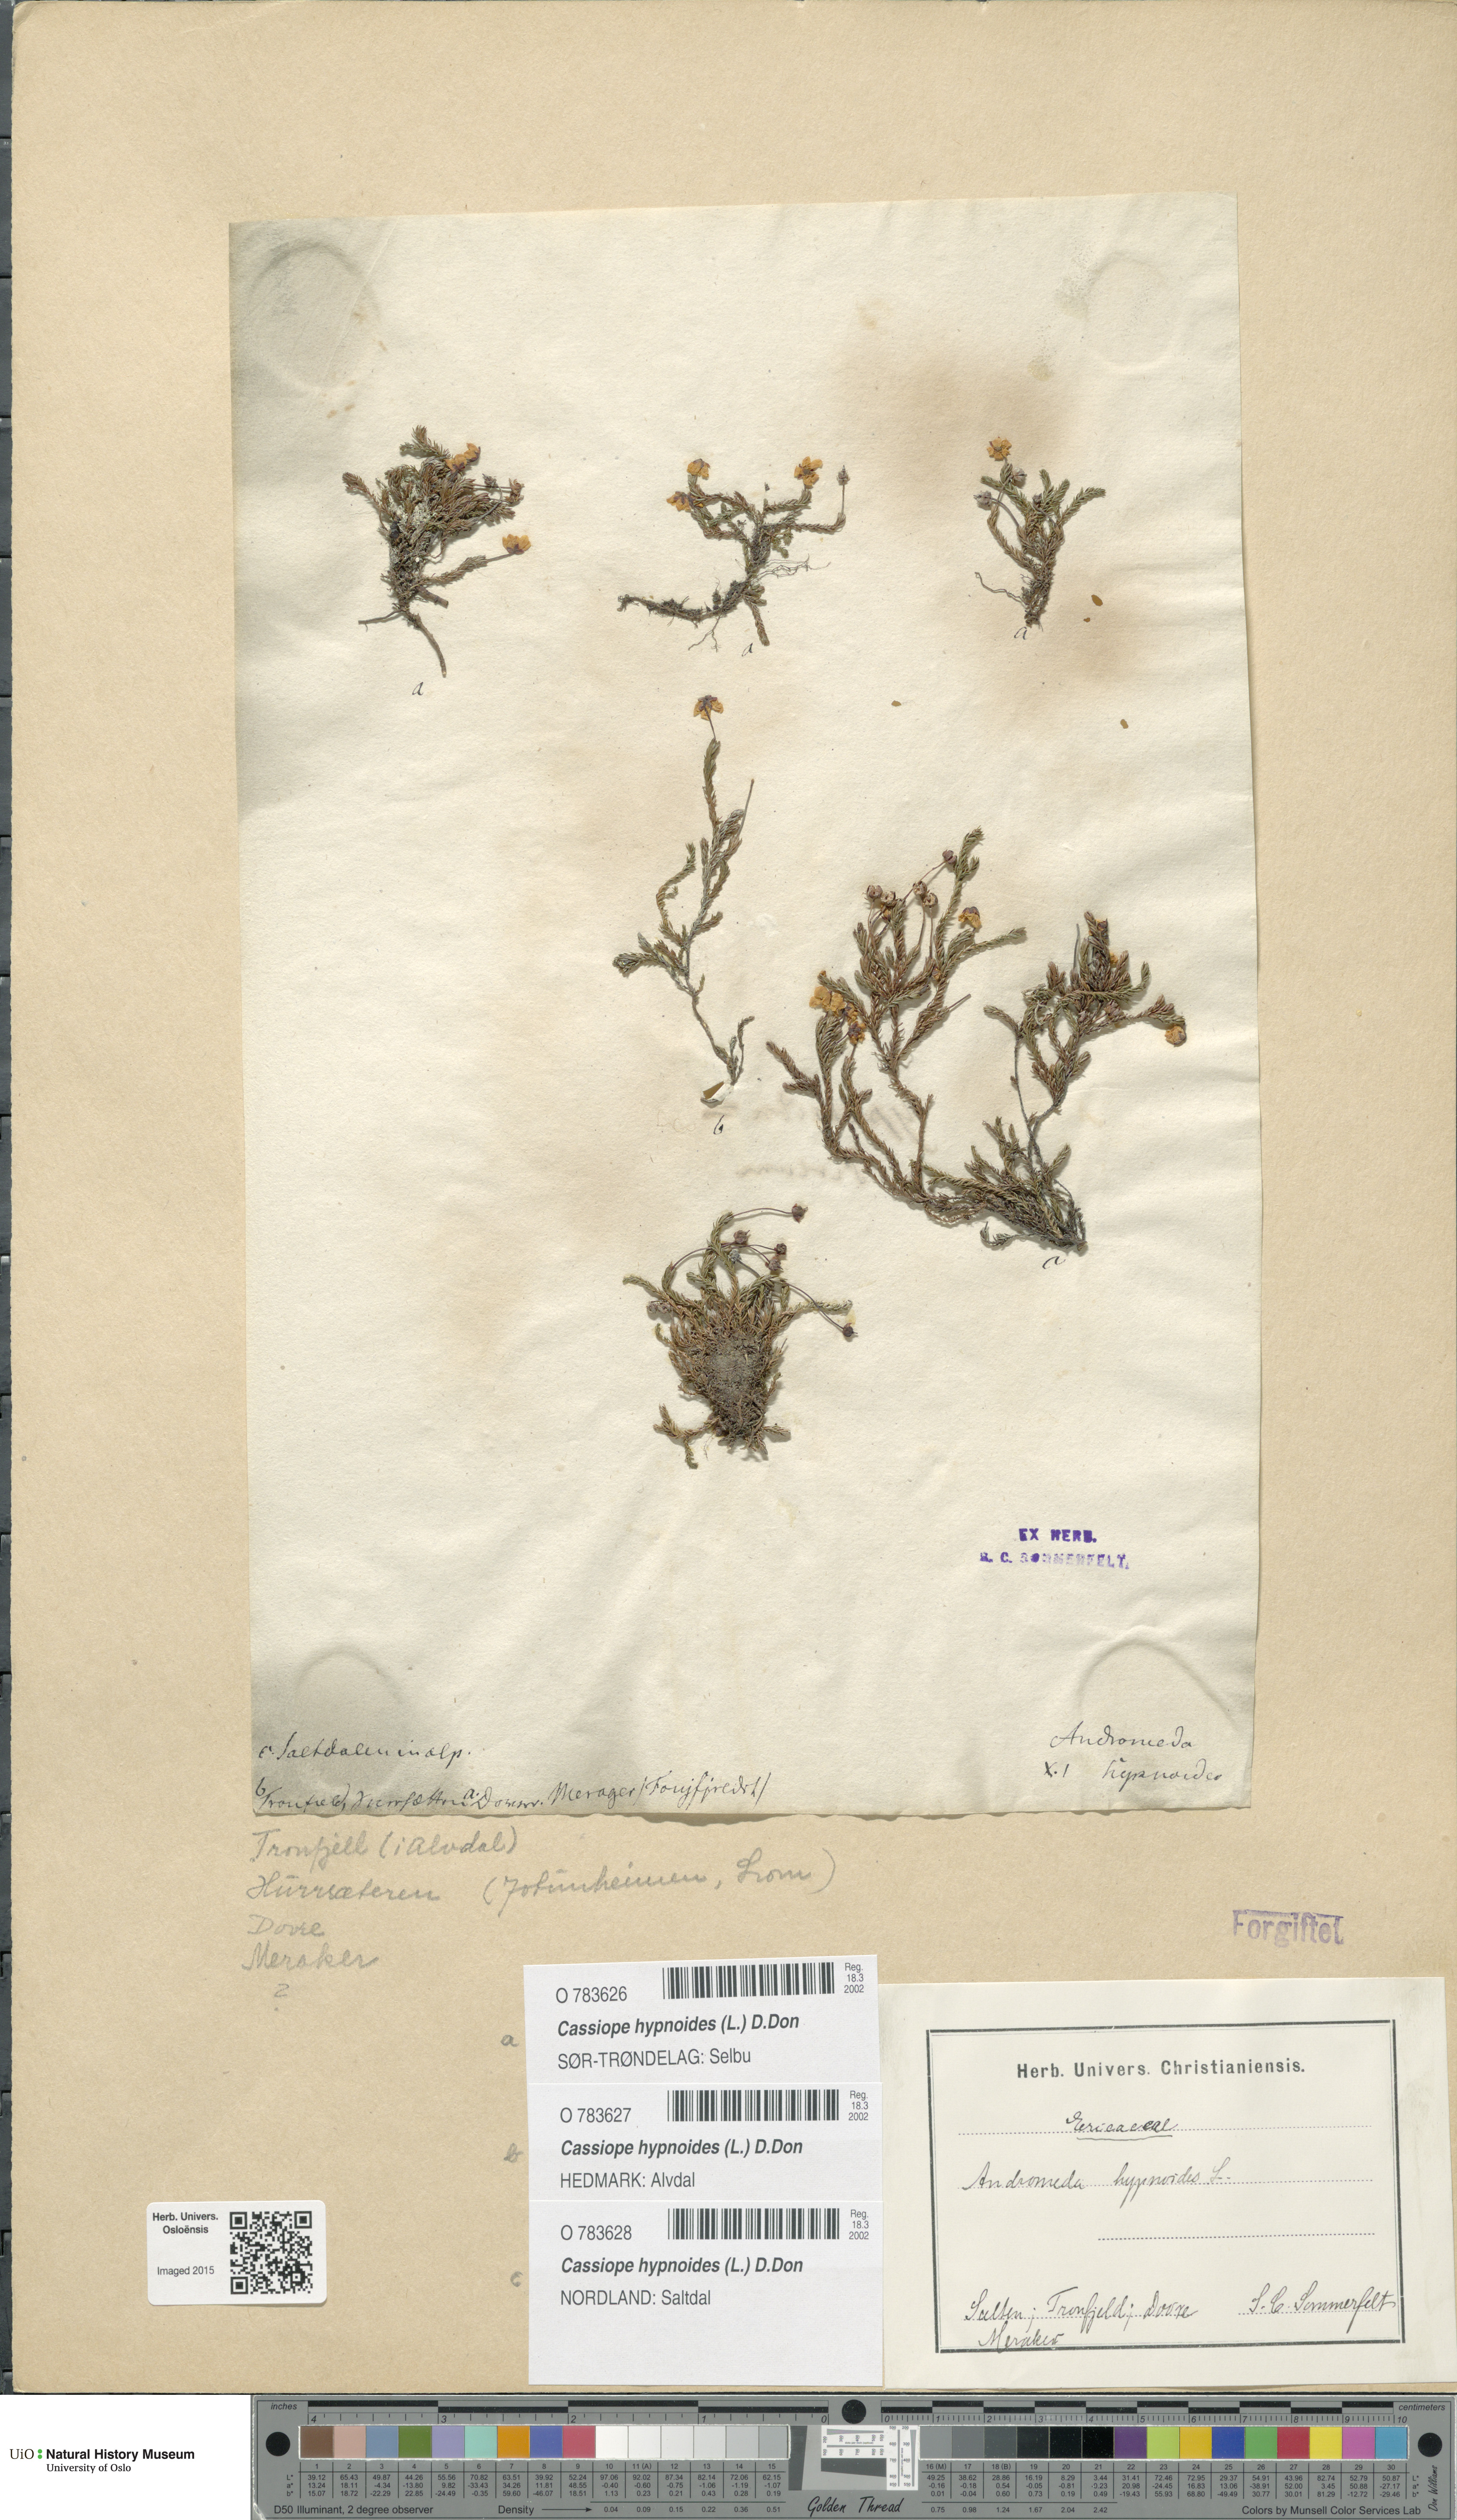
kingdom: Plantae
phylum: Tracheophyta
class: Magnoliopsida
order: Ericales
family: Ericaceae
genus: Harrimanella
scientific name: Harrimanella hypnoides
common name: Moss bell heather
